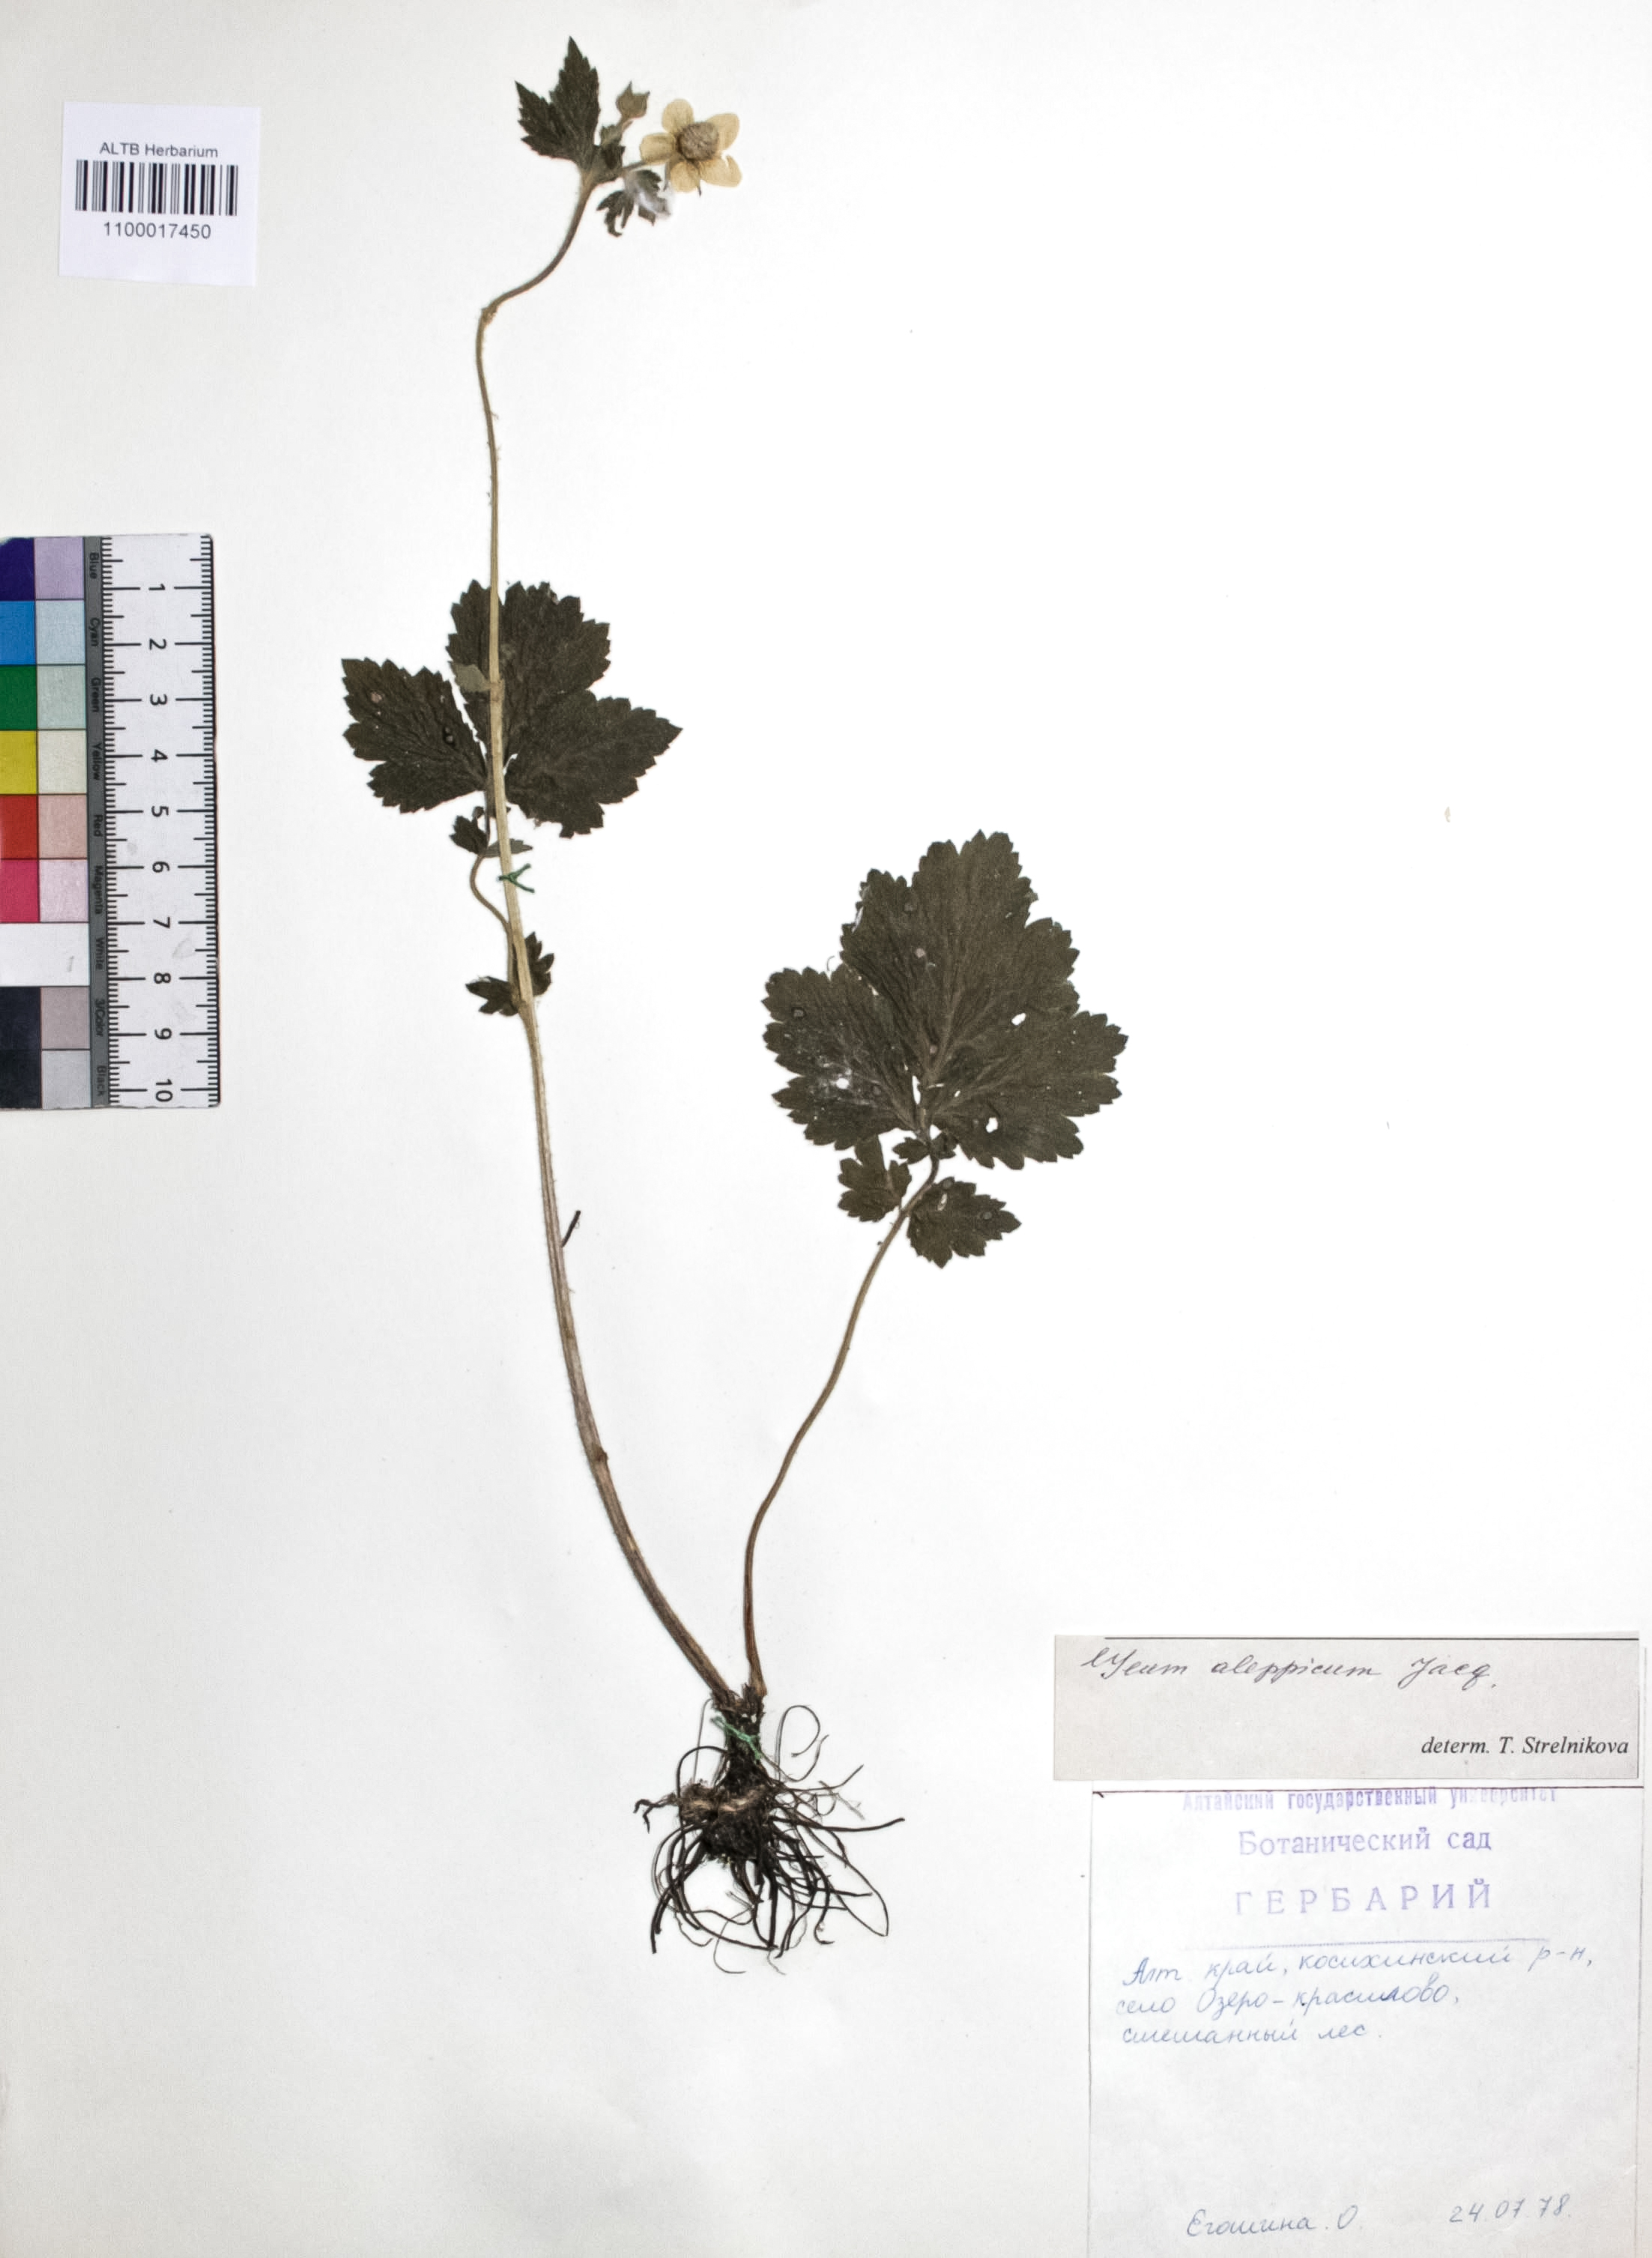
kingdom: Plantae
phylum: Tracheophyta
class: Magnoliopsida
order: Rosales
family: Rosaceae
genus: Geum
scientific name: Geum aleppicum
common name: Yellow avens
